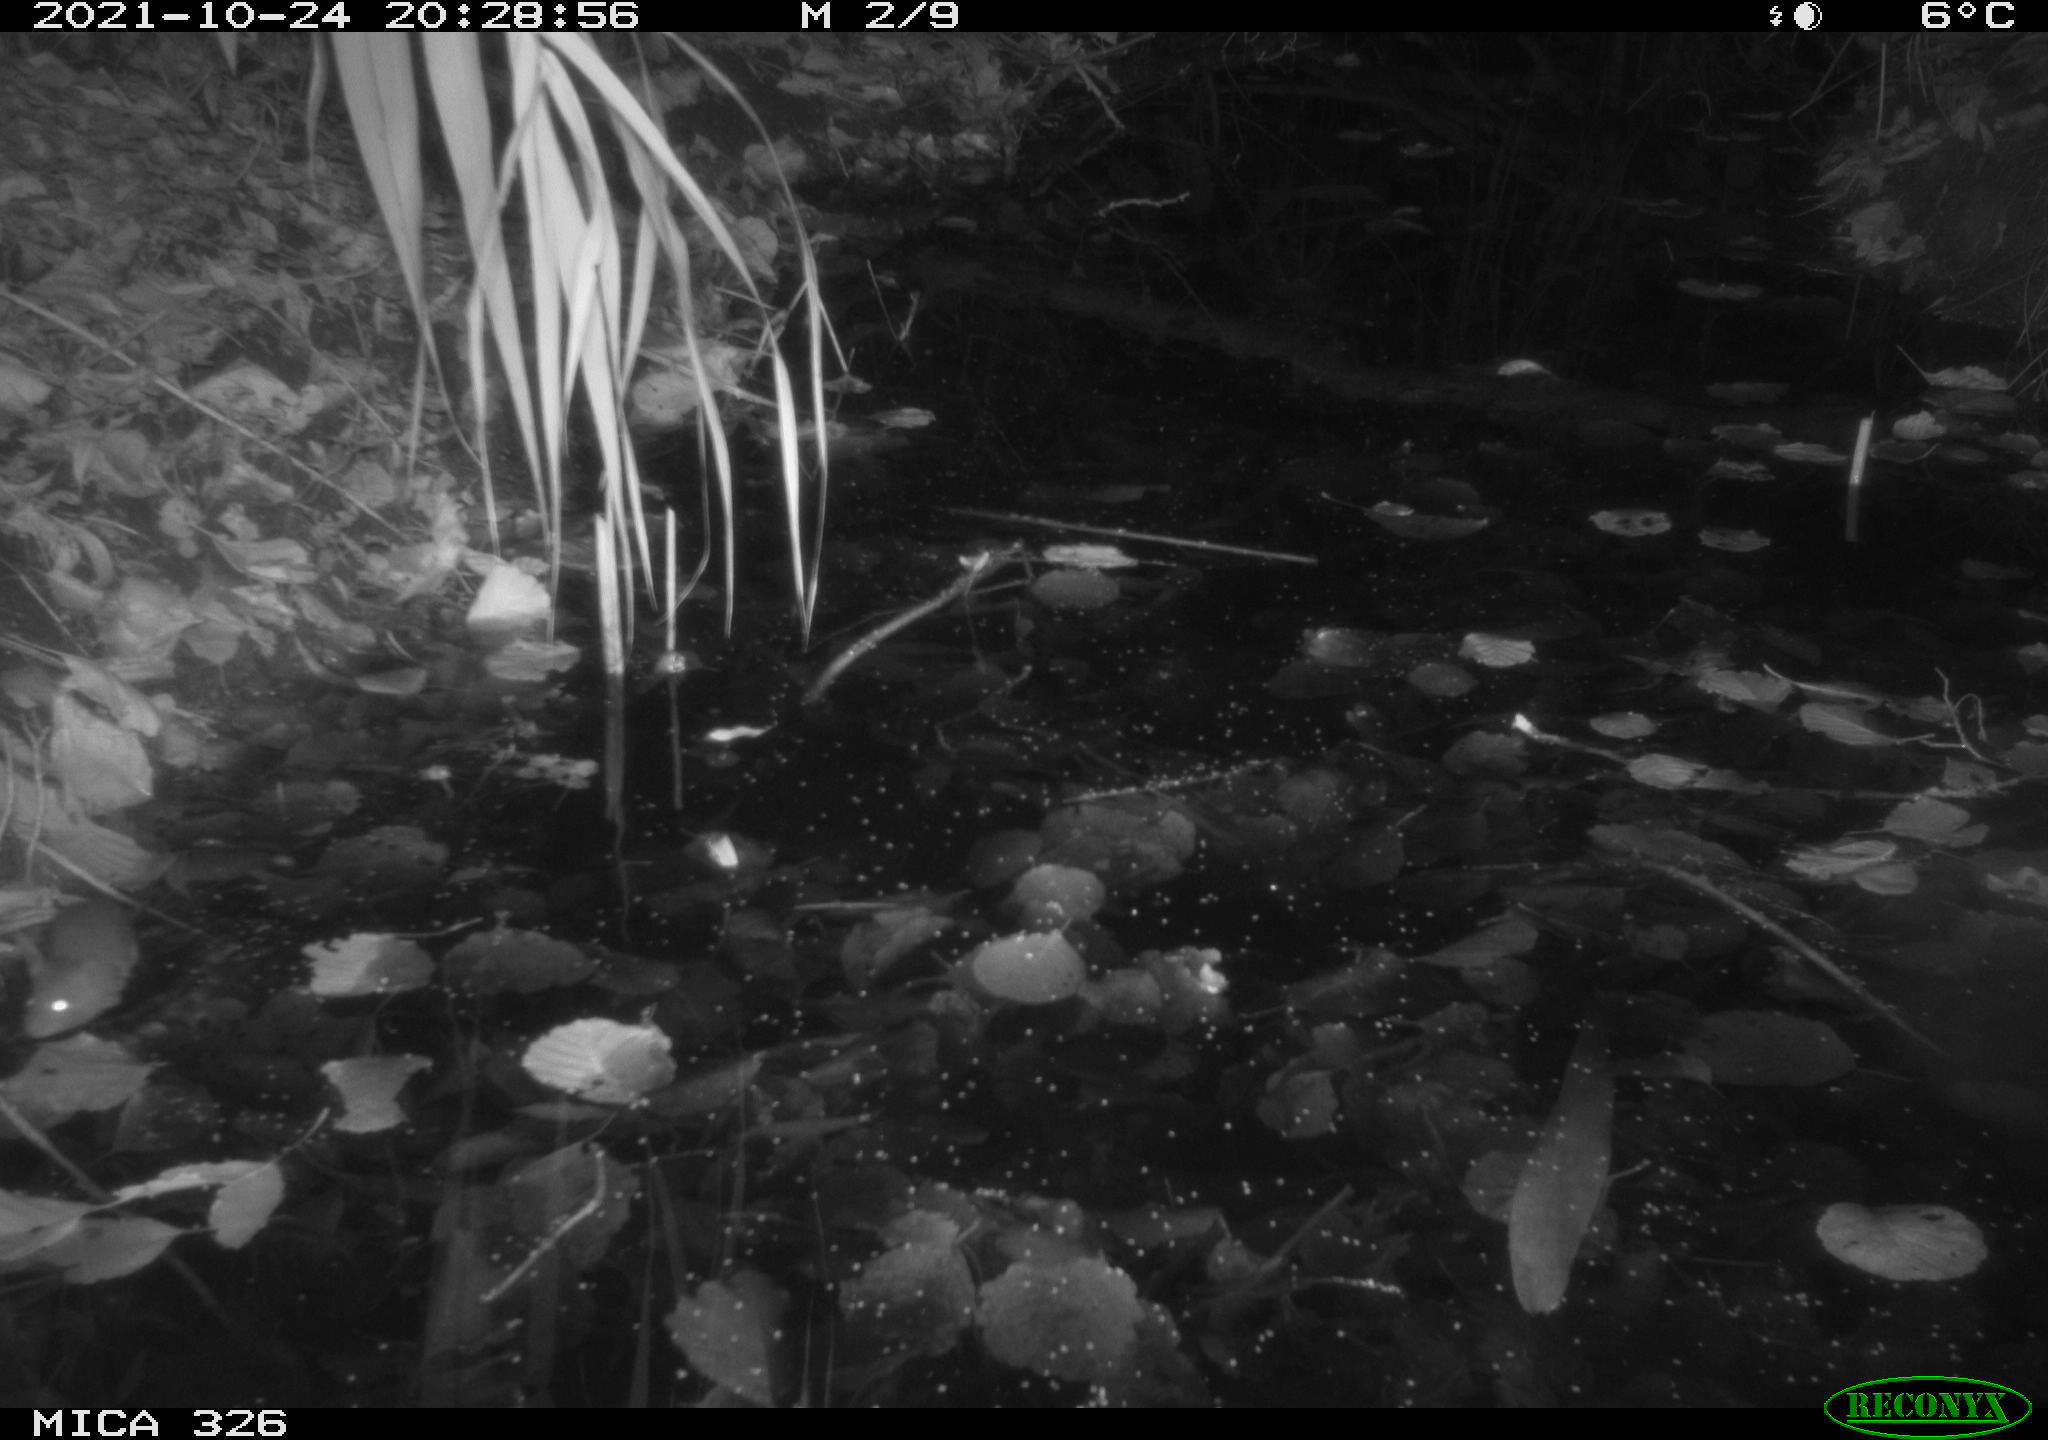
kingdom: Animalia
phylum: Chordata
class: Mammalia
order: Rodentia
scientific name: Rodentia
